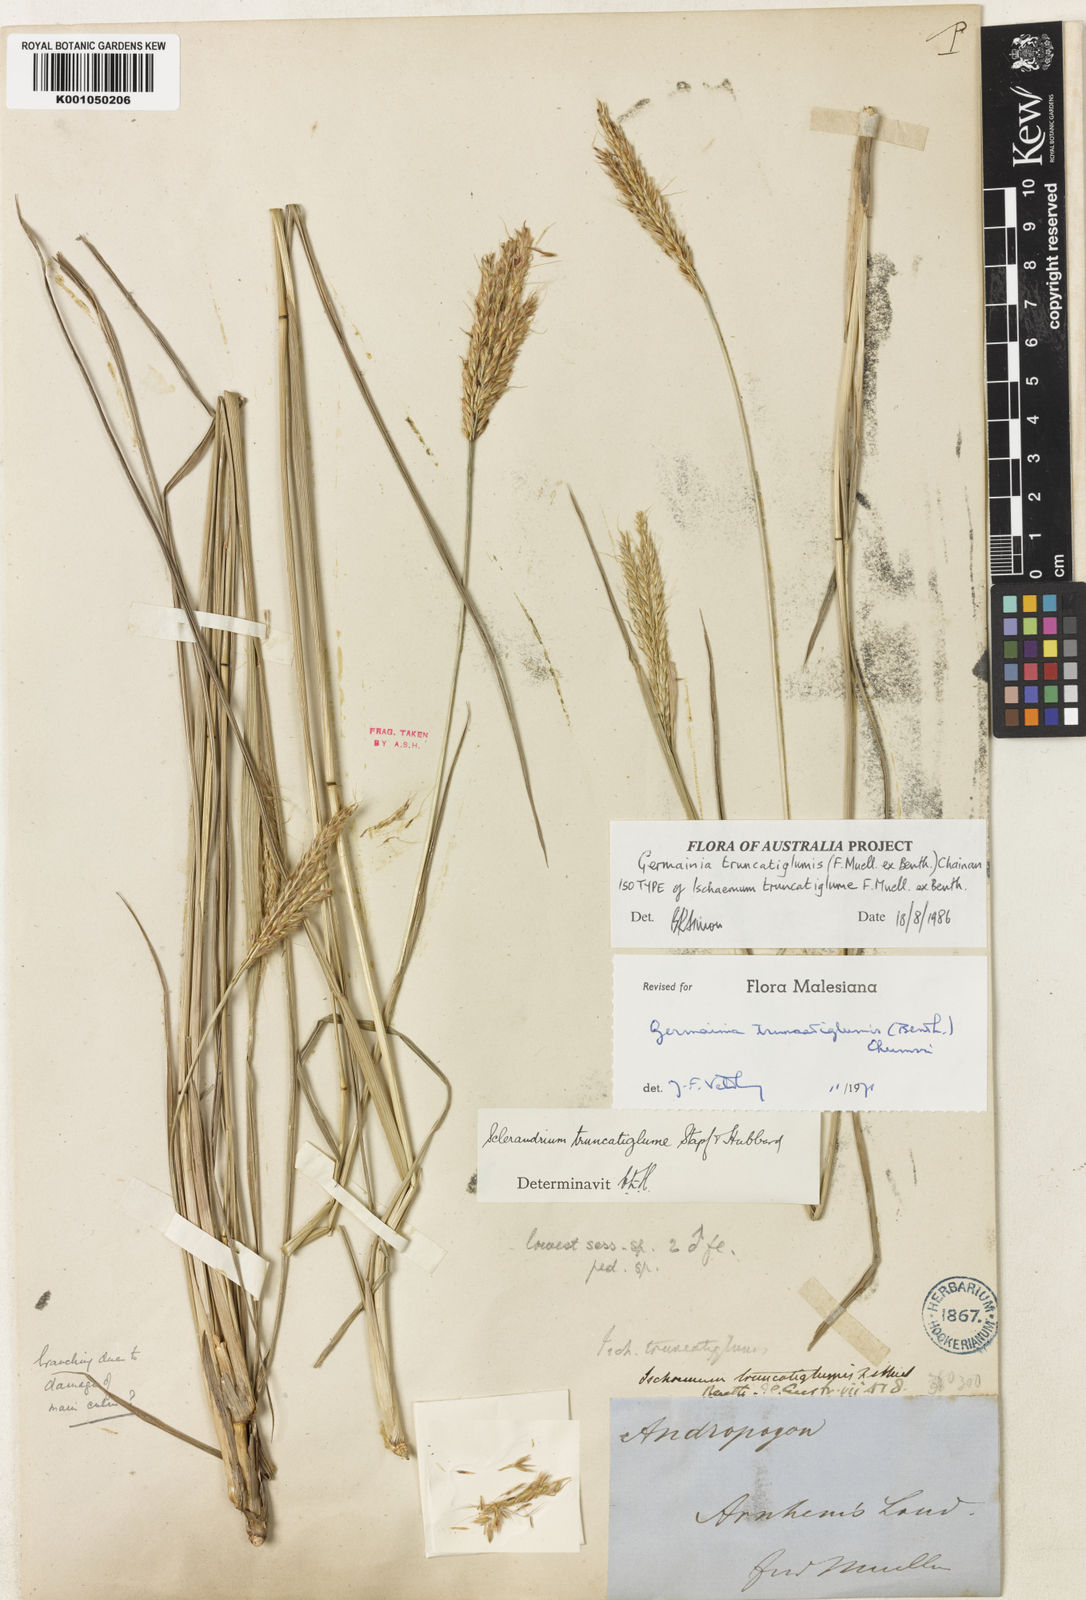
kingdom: Plantae
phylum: Tracheophyta
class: Liliopsida
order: Poales
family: Poaceae
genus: Germainia
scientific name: Germainia truncatiglumis
